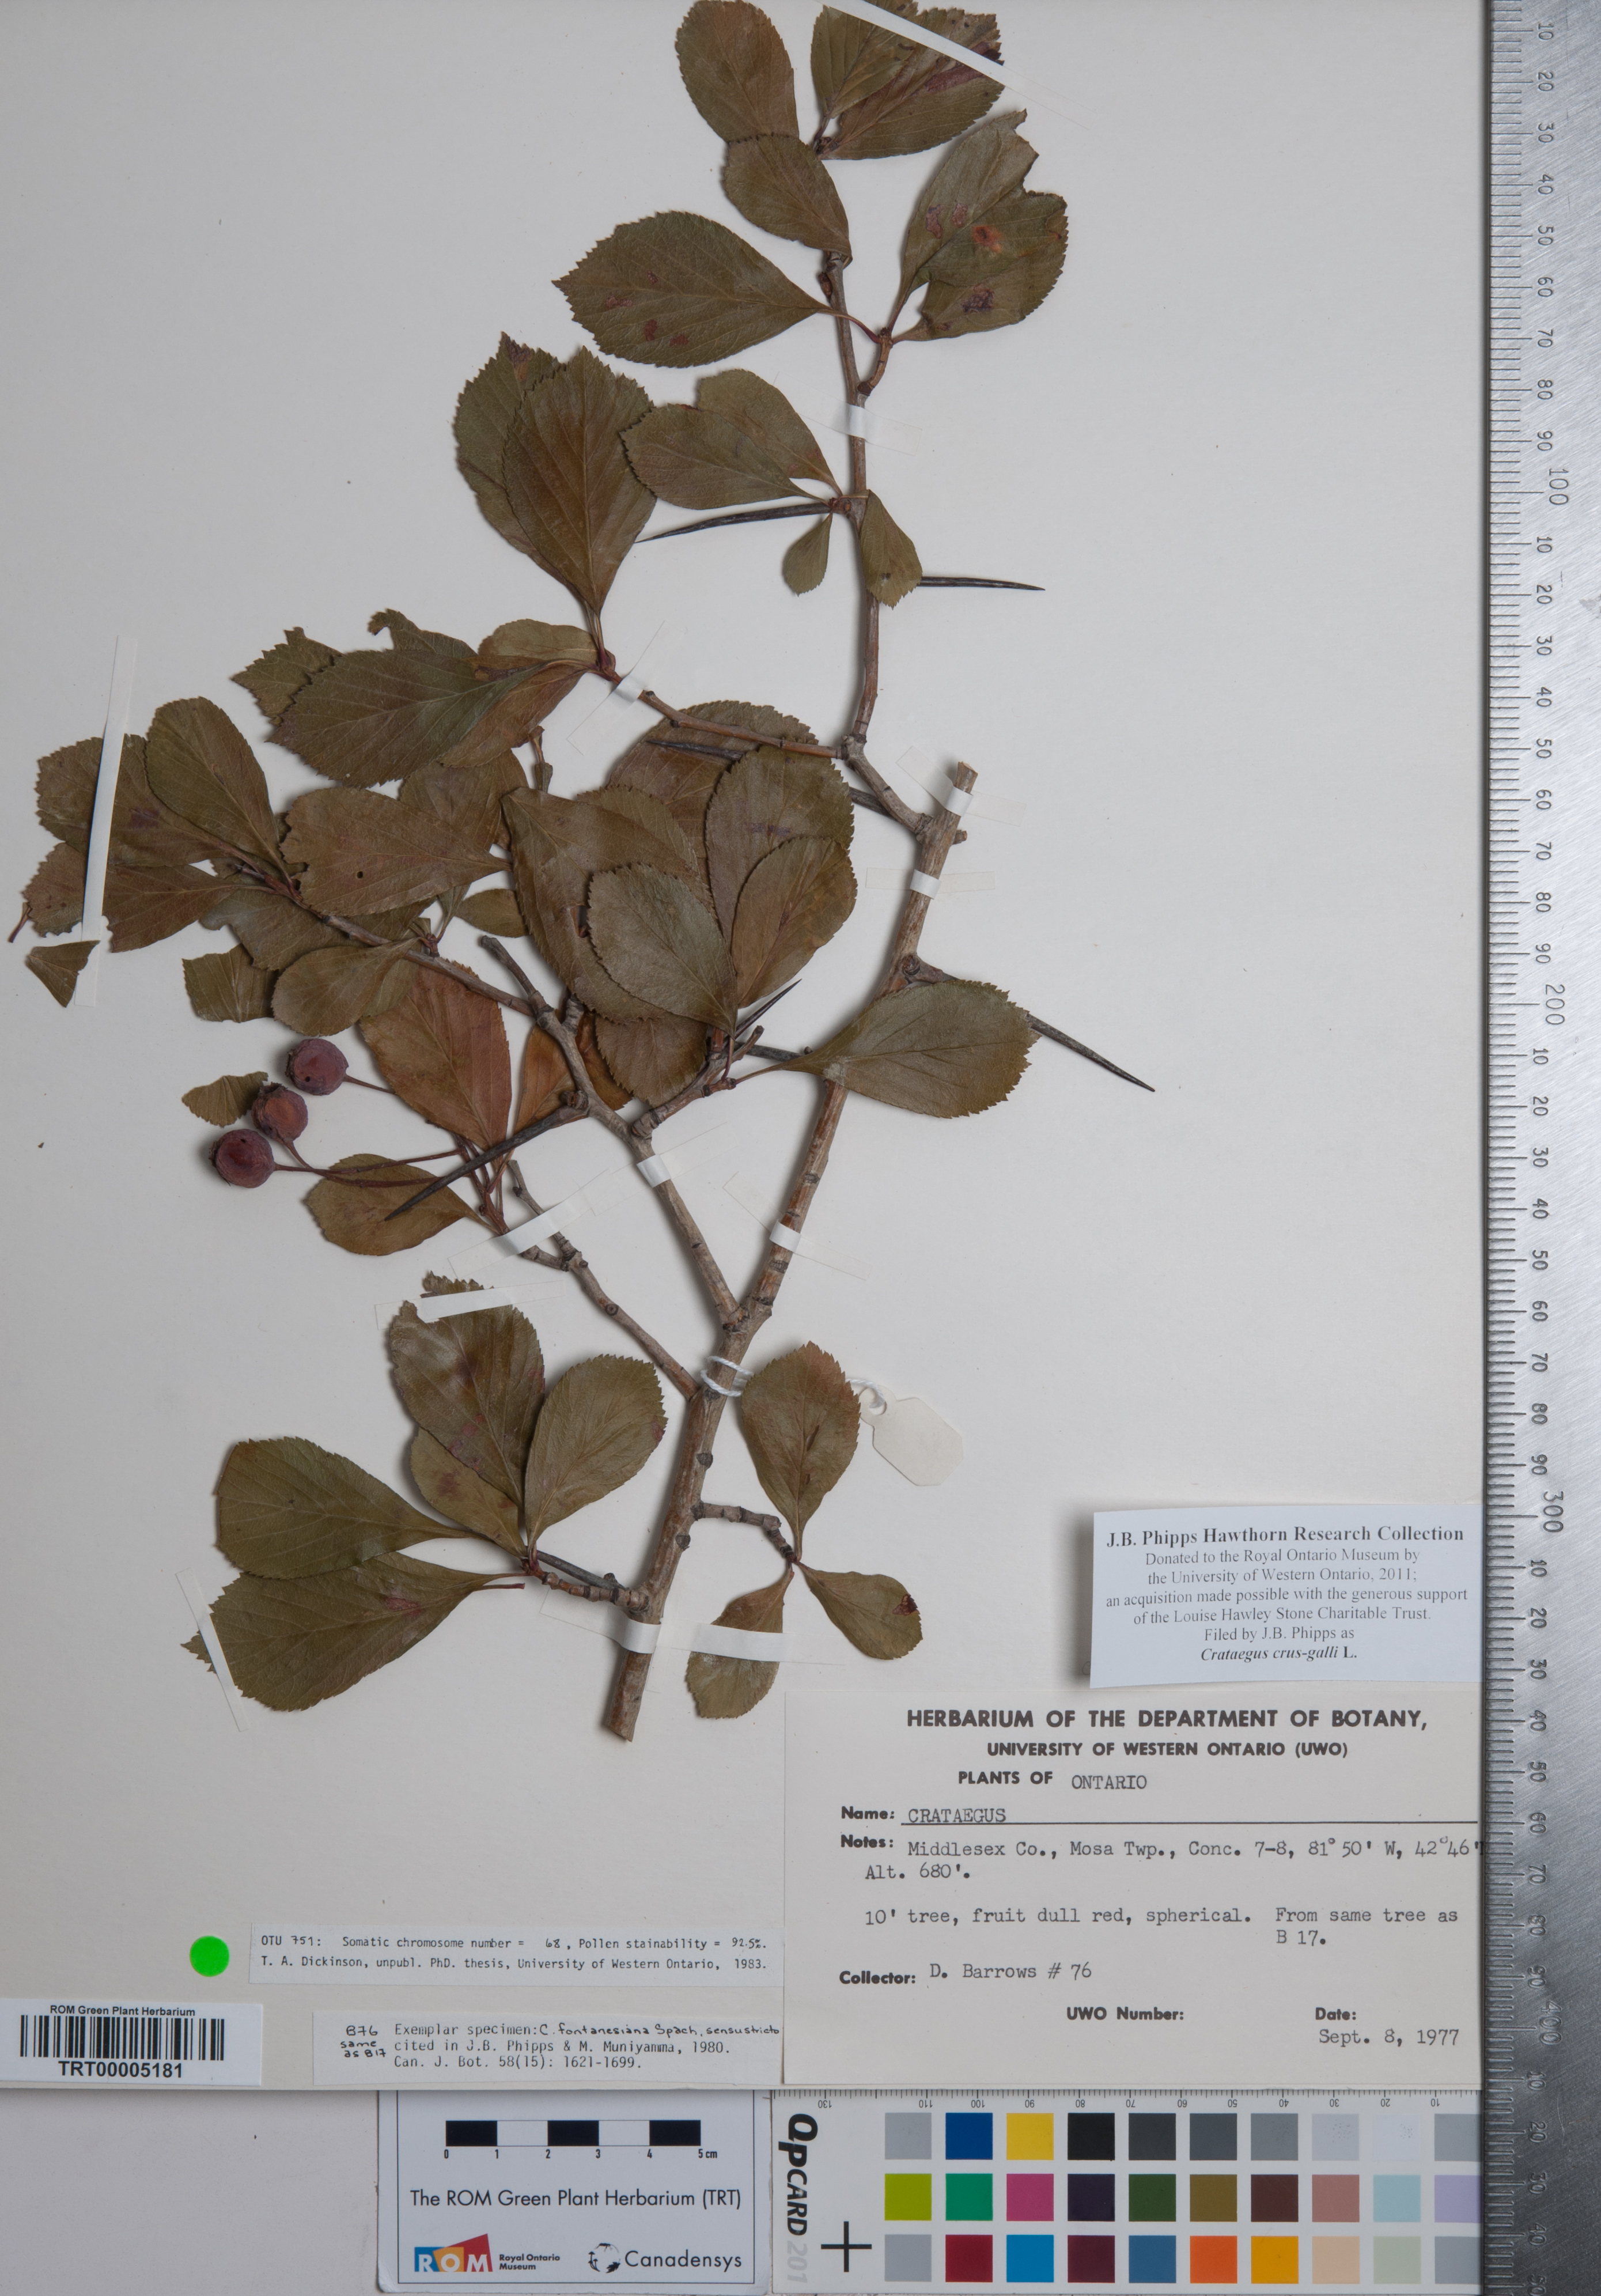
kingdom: Plantae
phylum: Tracheophyta
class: Magnoliopsida
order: Rosales
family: Rosaceae
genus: Crataegus
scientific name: Crataegus crus-galli
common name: Cockspurthorn
